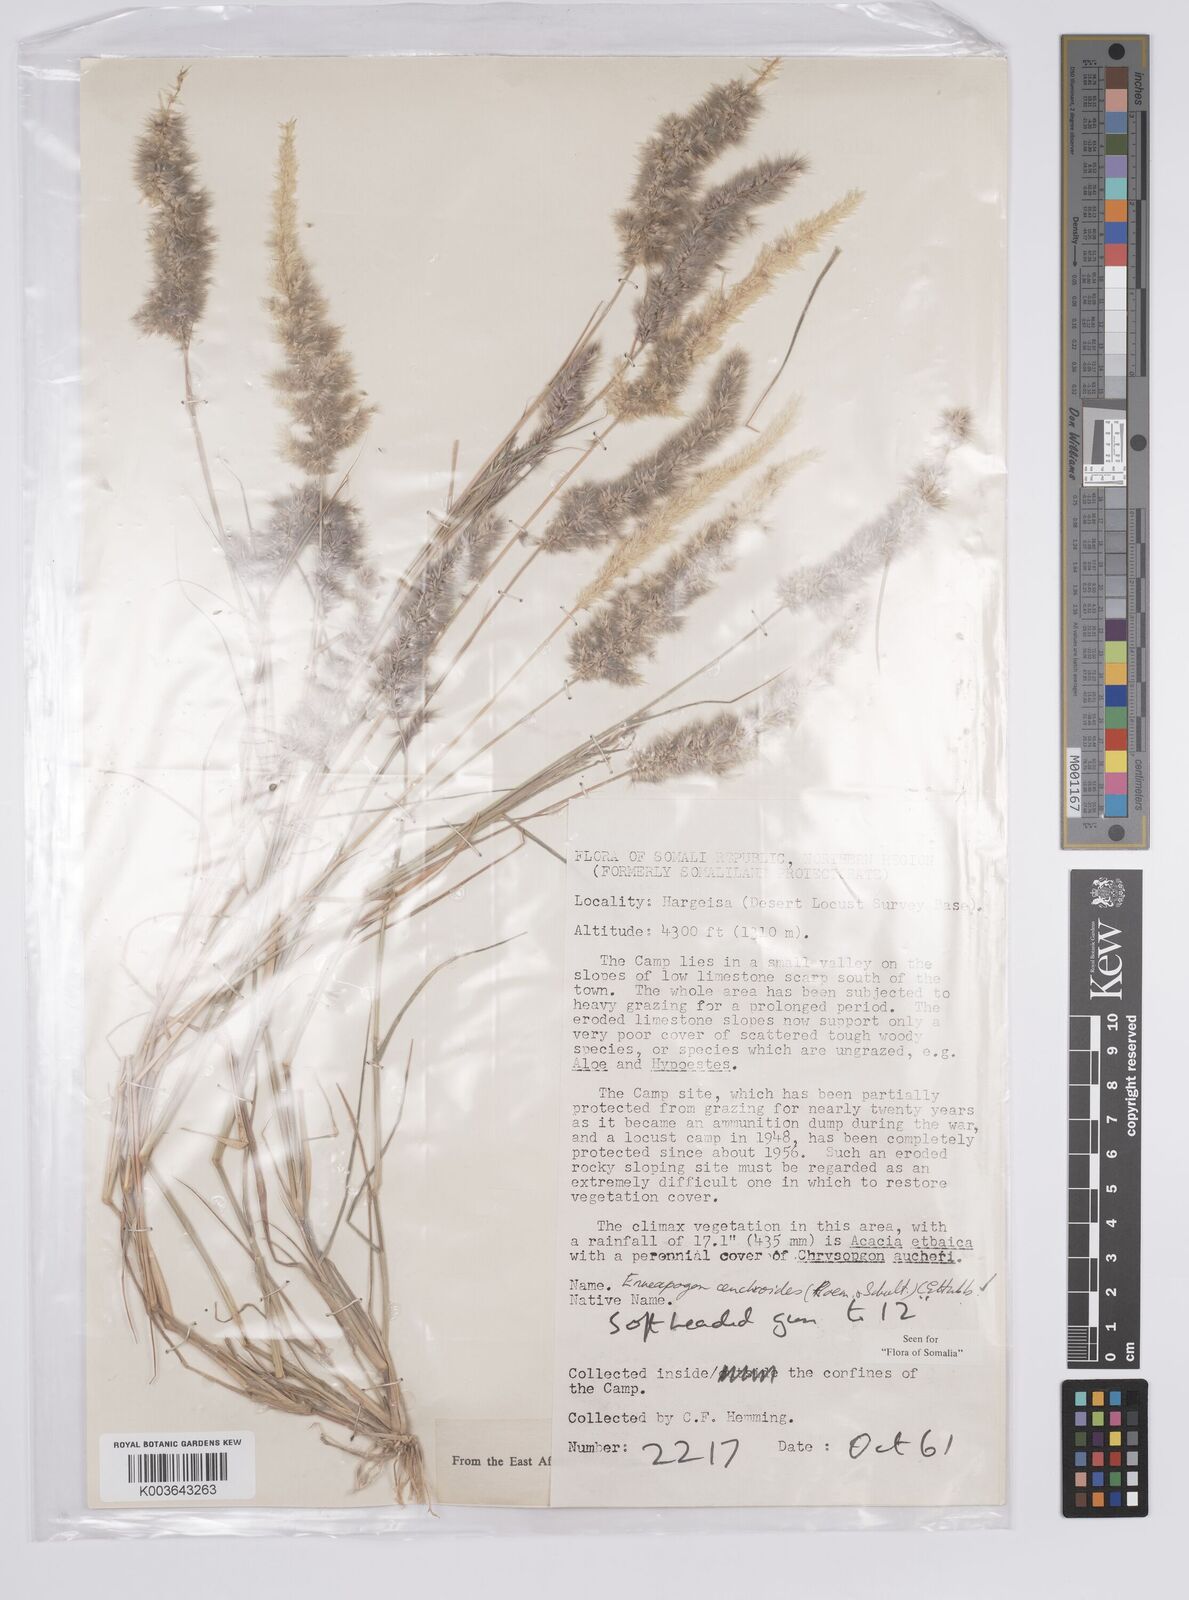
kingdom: Plantae
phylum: Tracheophyta
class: Liliopsida
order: Poales
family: Poaceae
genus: Enneapogon
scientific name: Enneapogon cenchroides
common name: Soft feather pappusgrass
